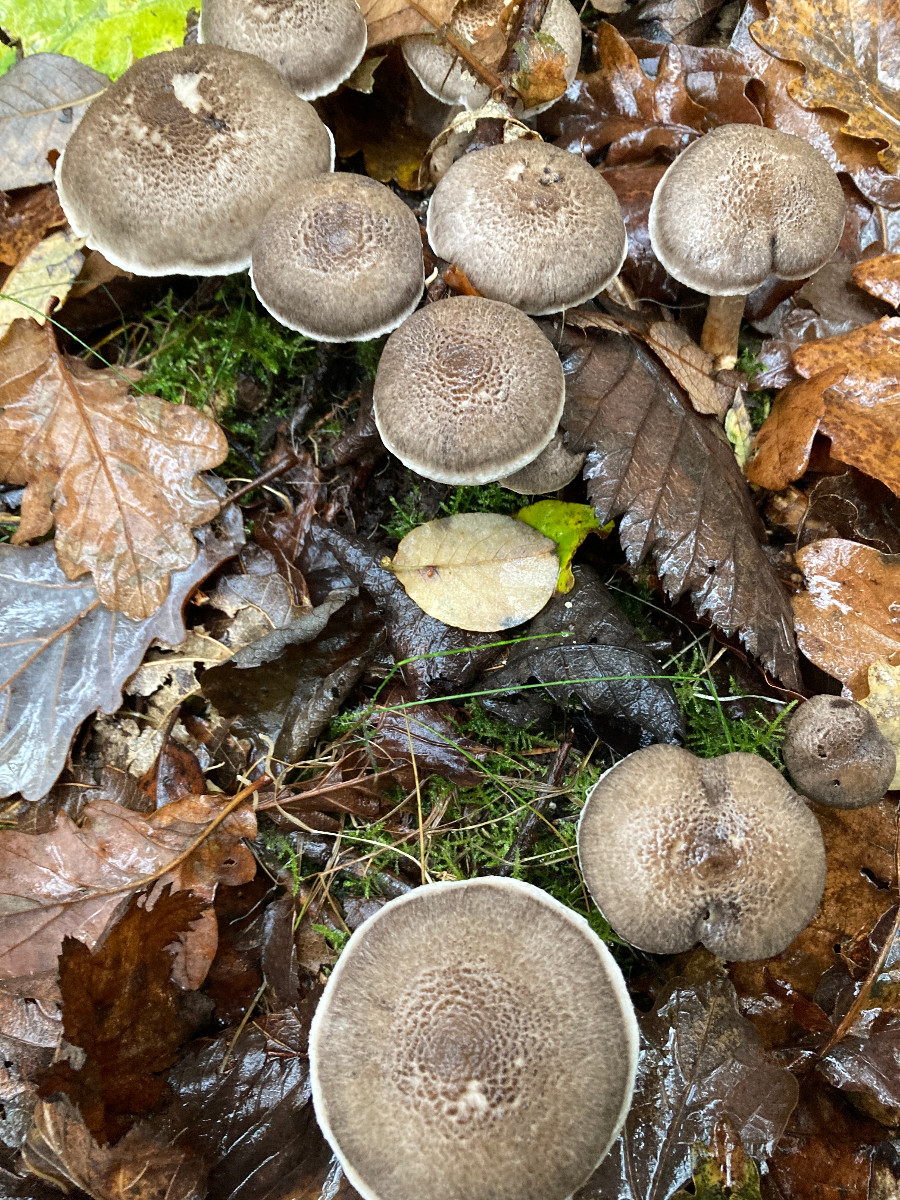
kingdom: Fungi
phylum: Basidiomycota
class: Agaricomycetes
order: Agaricales
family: Tricholomataceae
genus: Tricholoma
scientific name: Tricholoma cingulatum
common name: ring-ridderhat
